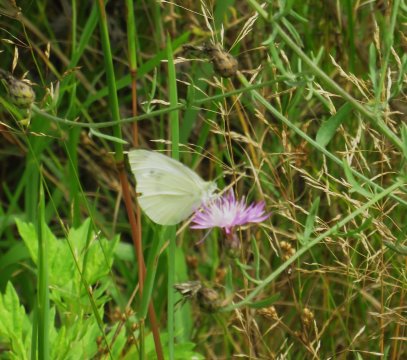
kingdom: Animalia
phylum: Arthropoda
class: Insecta
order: Lepidoptera
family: Pieridae
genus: Pieris
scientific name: Pieris rapae
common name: Cabbage White
